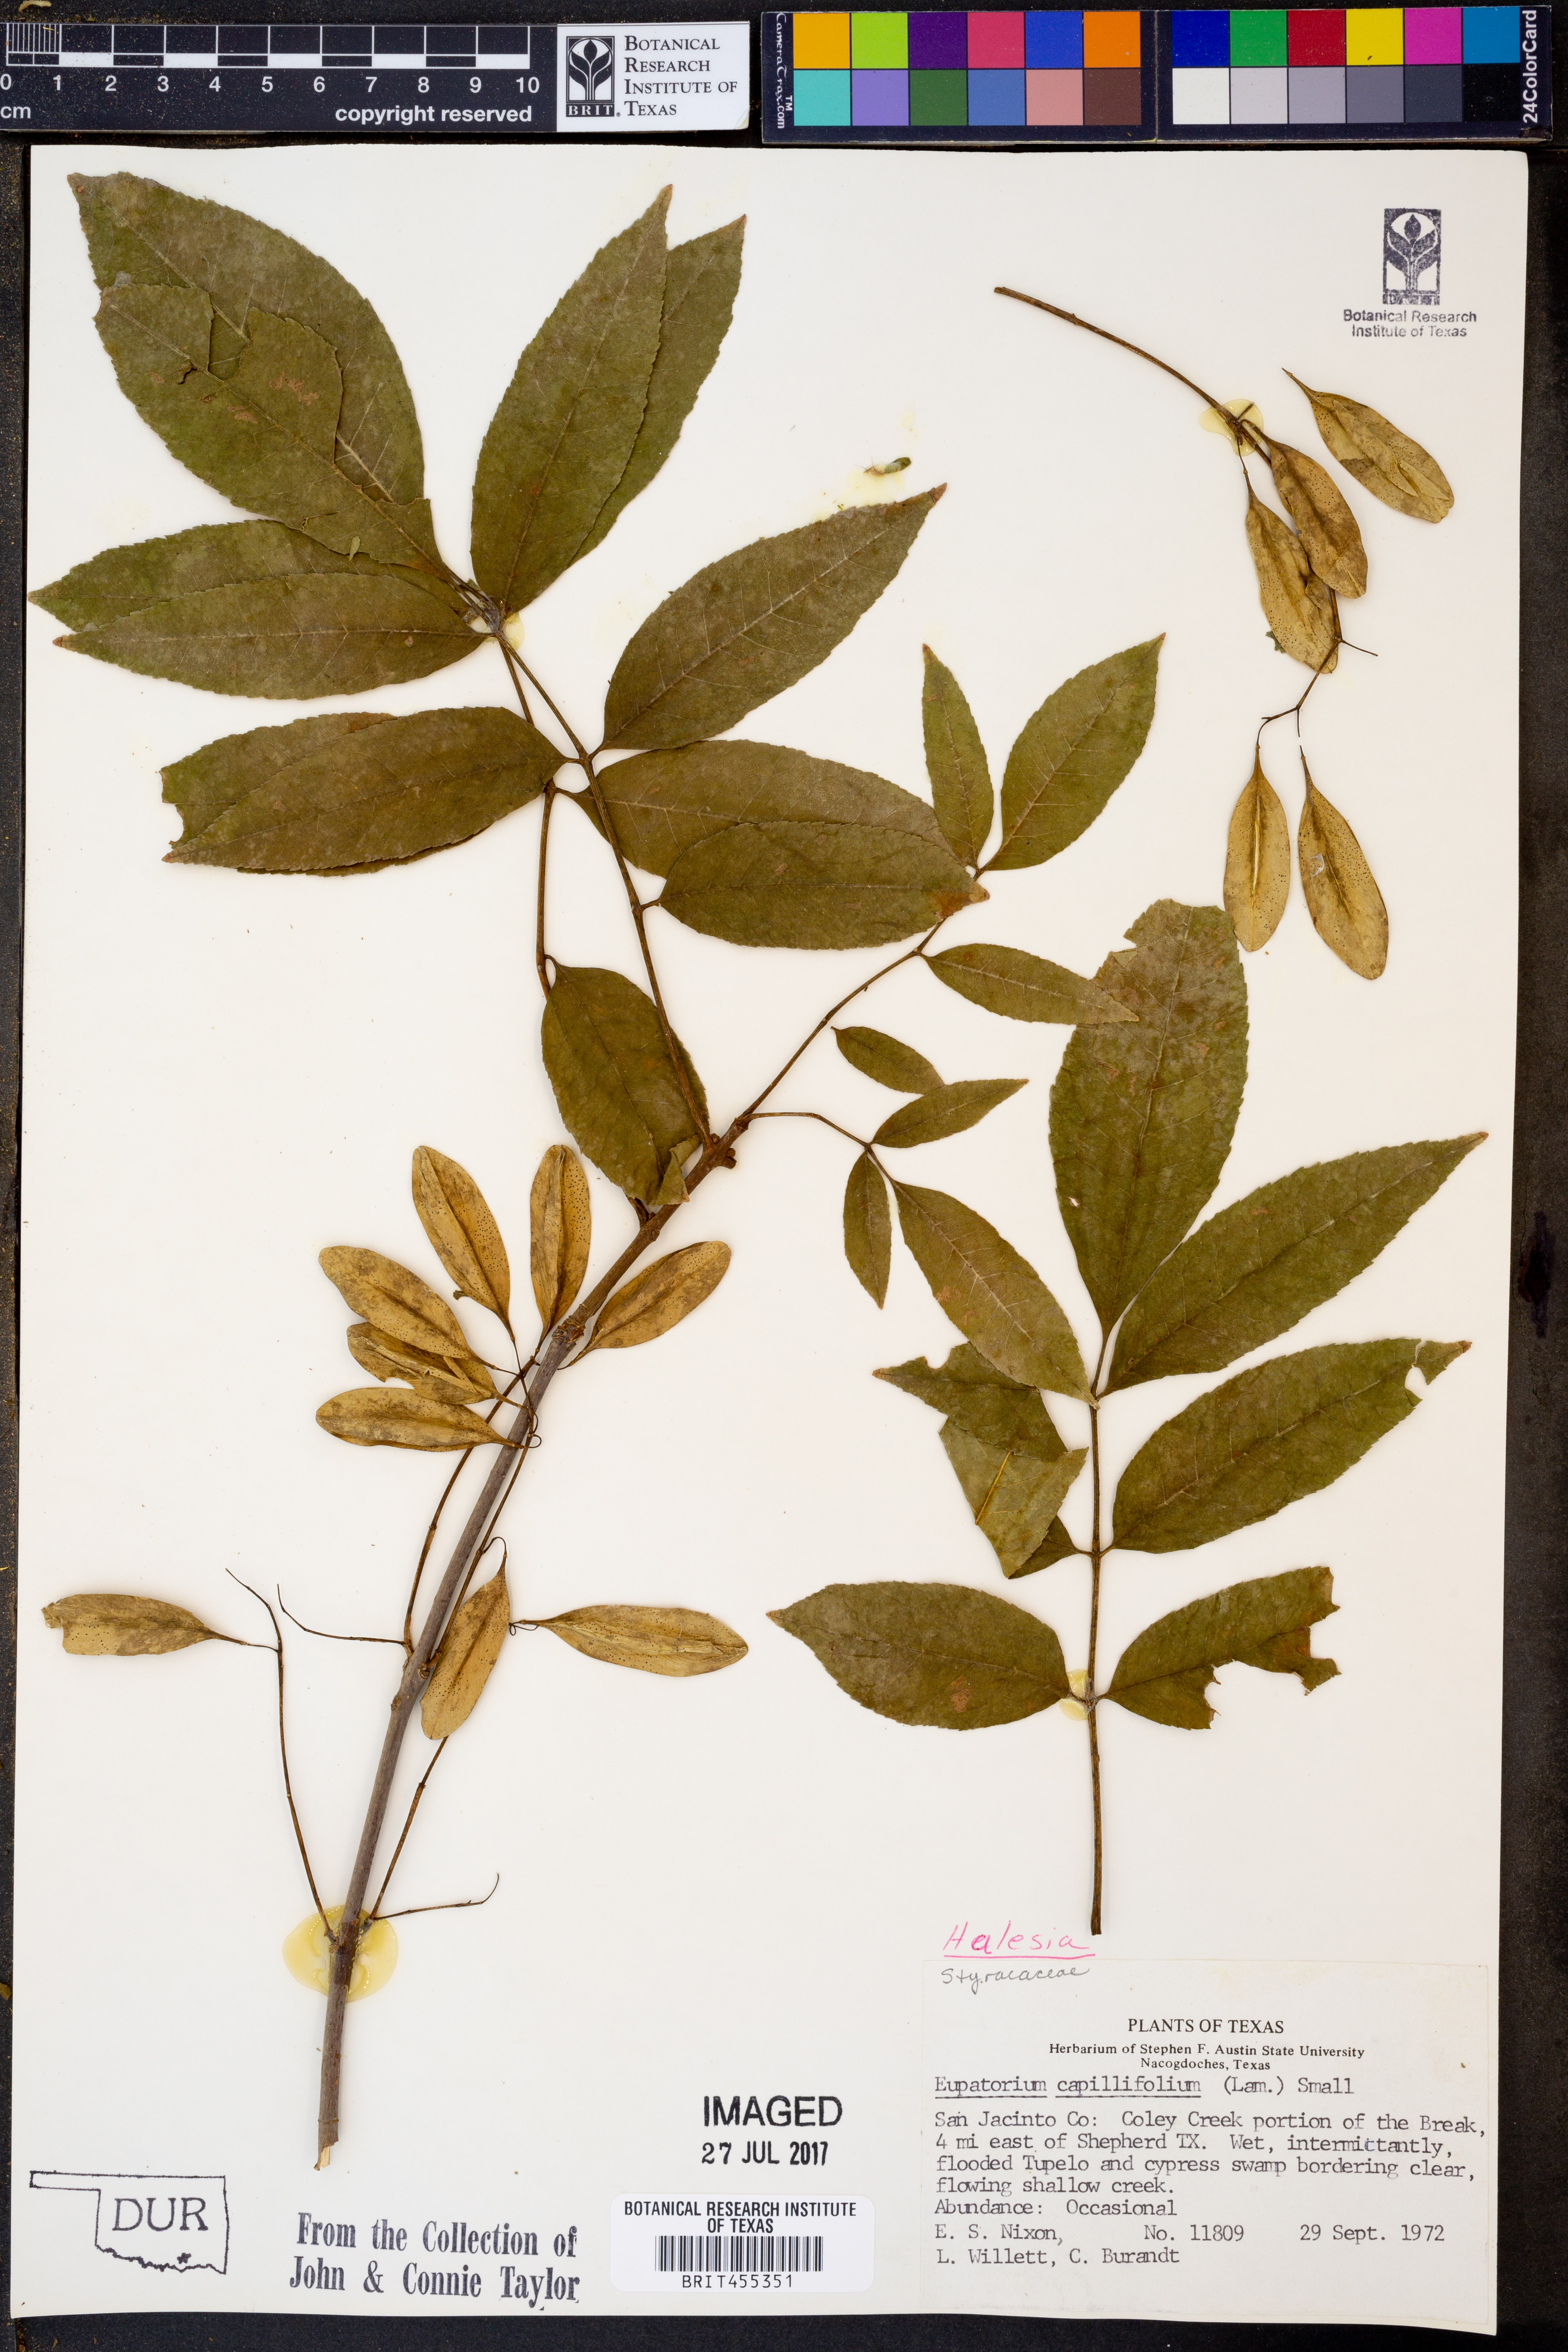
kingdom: Plantae
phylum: Tracheophyta
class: Magnoliopsida
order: Lamiales
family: Oleaceae
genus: Fraxinus
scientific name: Fraxinus americana
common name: White ash
